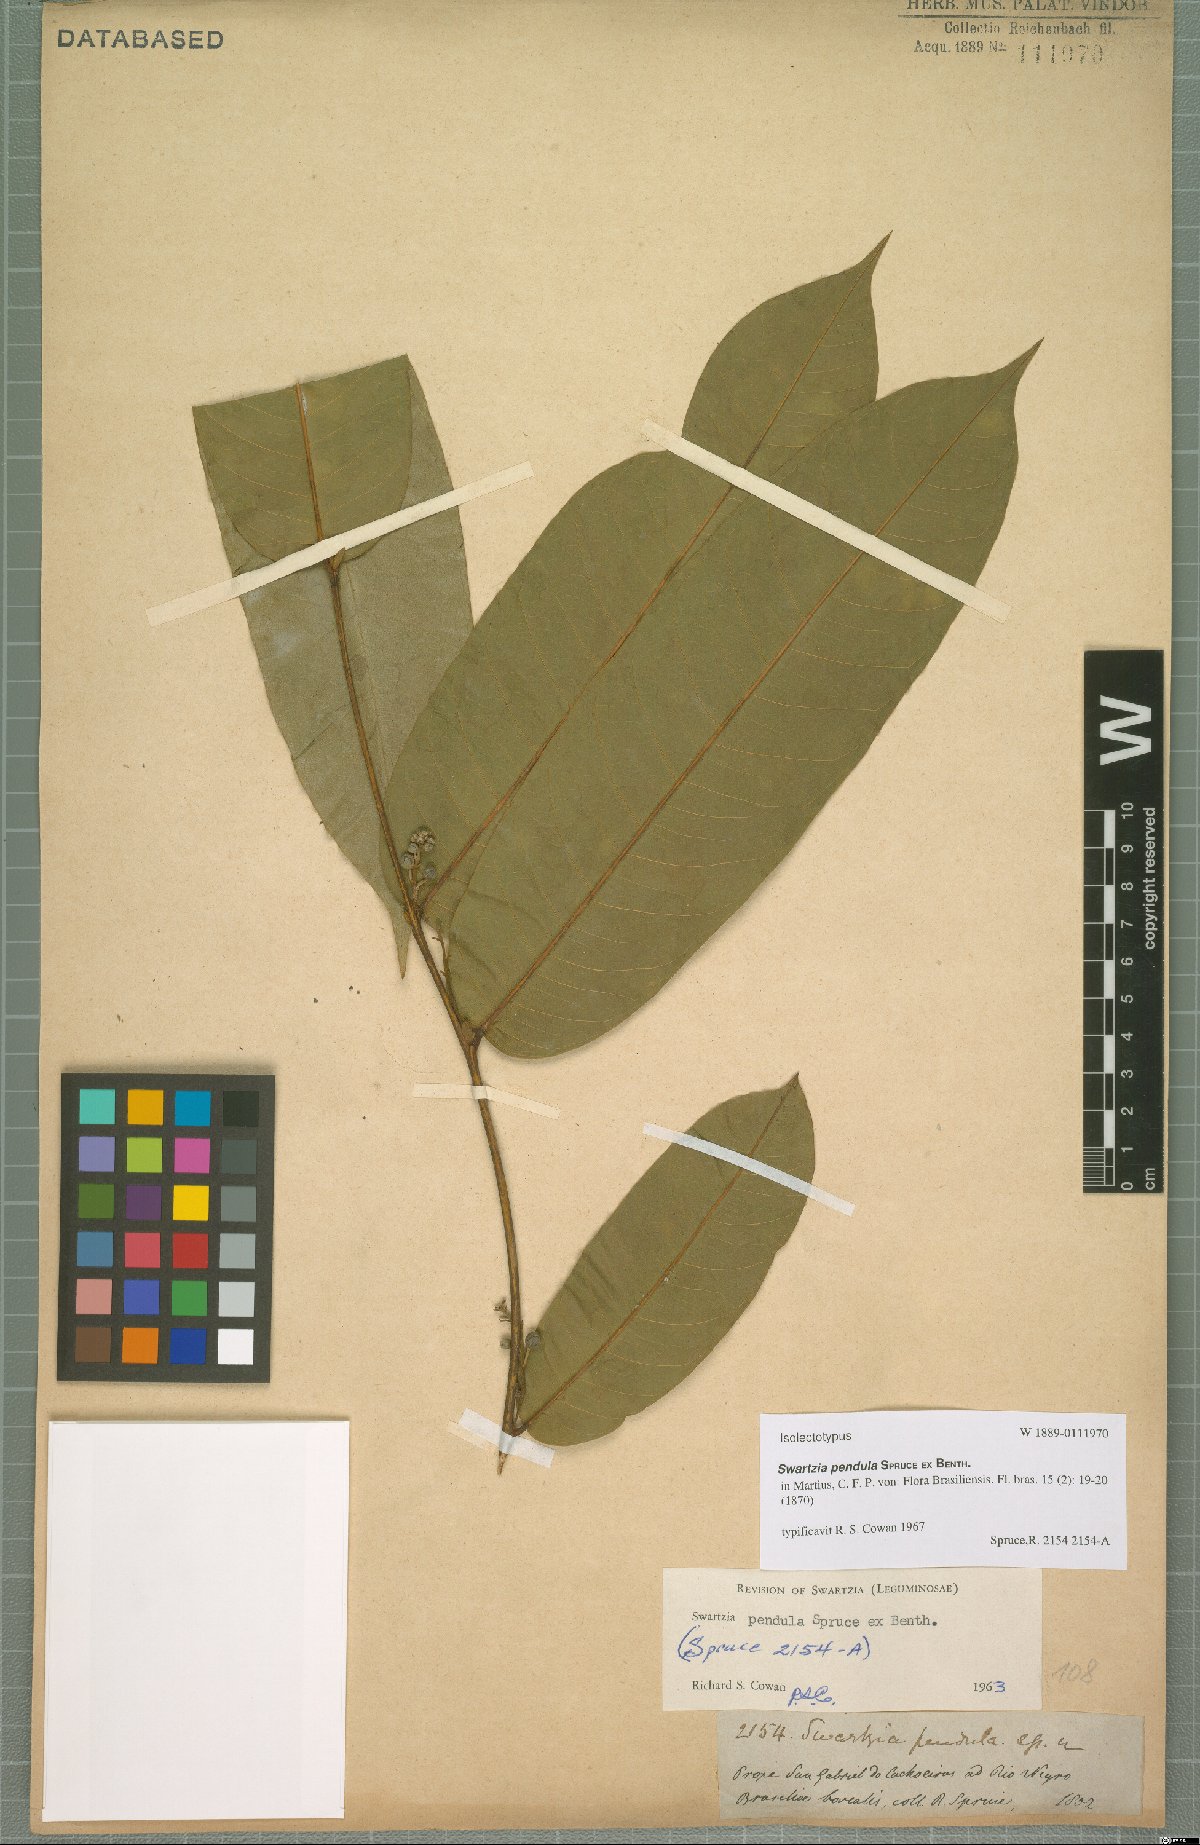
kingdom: Plantae
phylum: Tracheophyta
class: Magnoliopsida
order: Fabales
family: Fabaceae
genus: Swartzia
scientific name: Swartzia pendula
